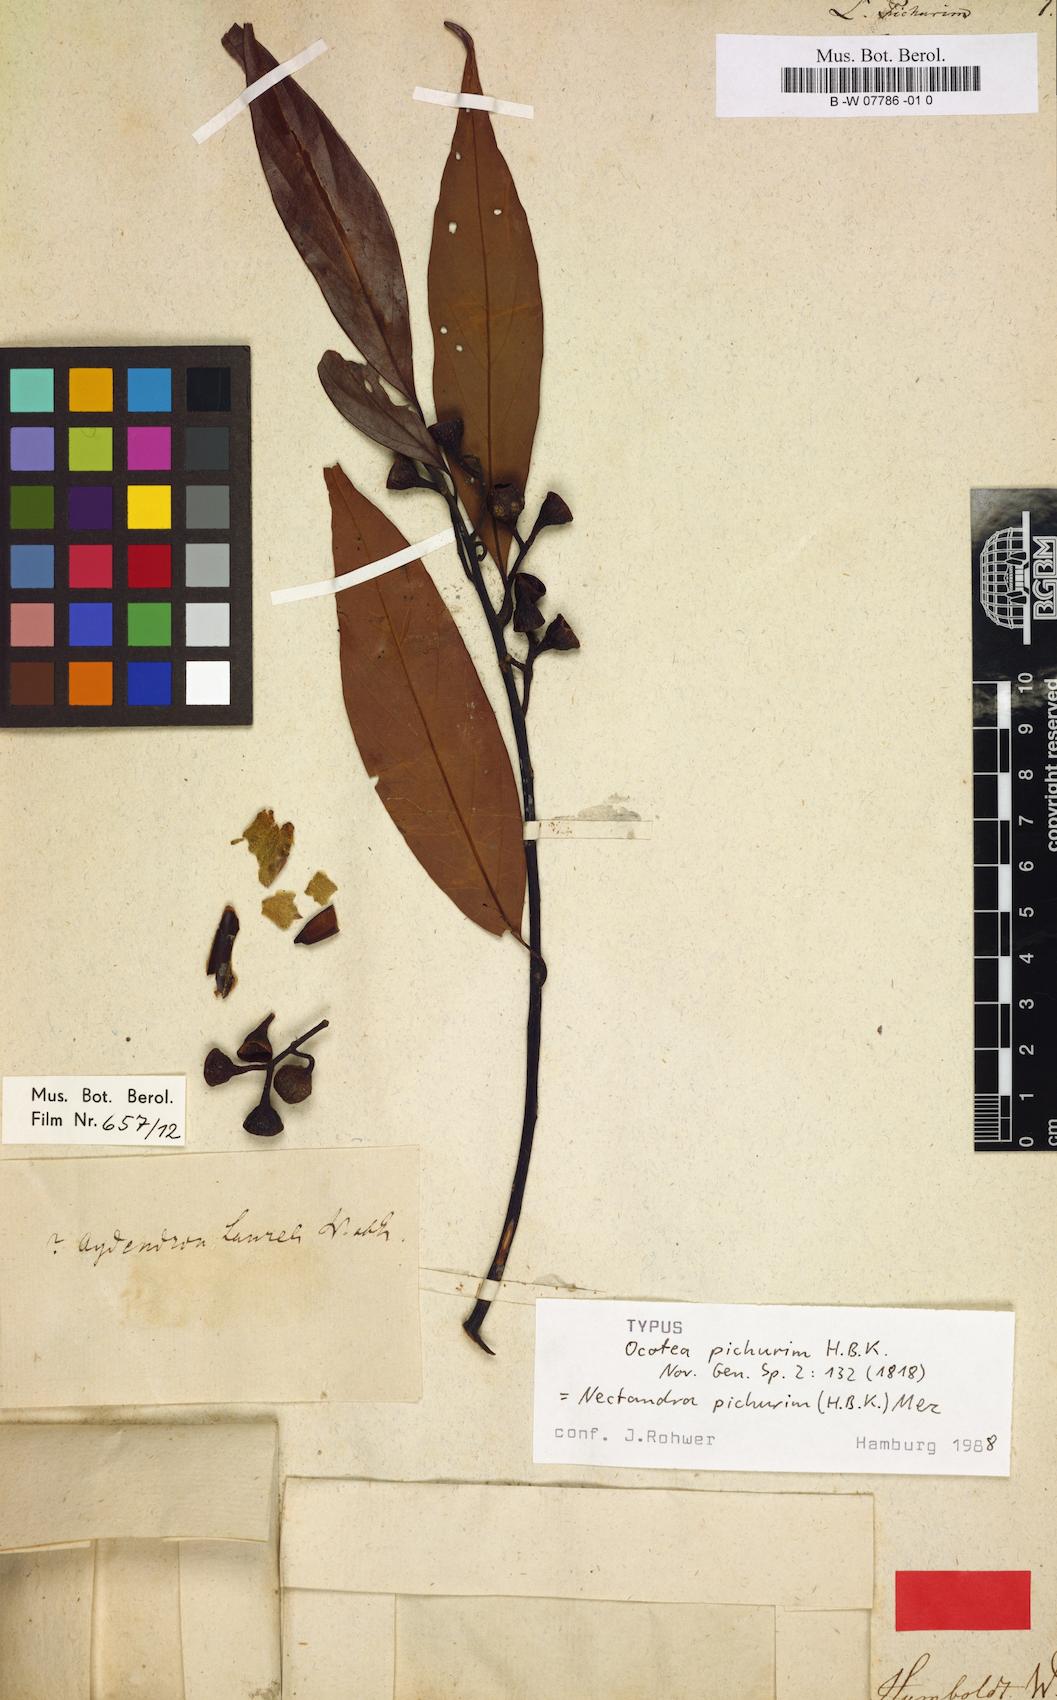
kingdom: Plantae
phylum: Tracheophyta
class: Magnoliopsida
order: Laurales
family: Lauraceae
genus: Nectandra
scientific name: Nectandra pichurim
